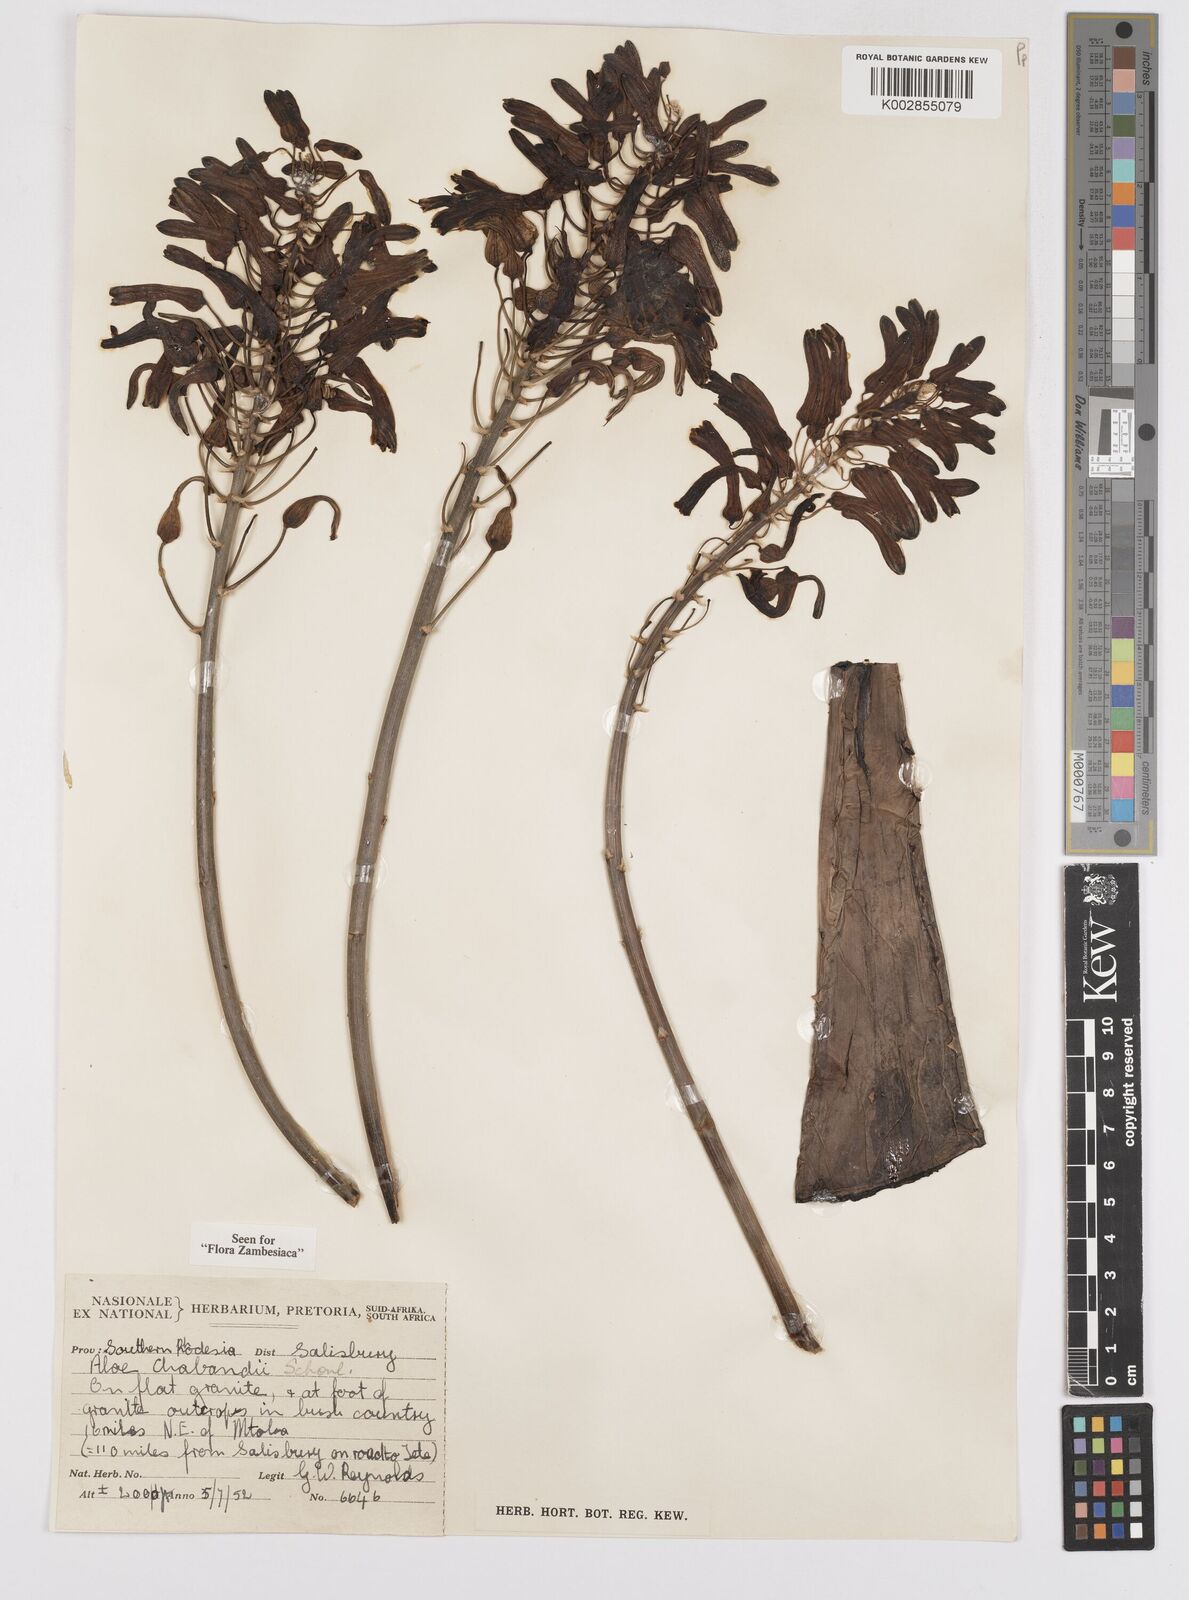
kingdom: Plantae
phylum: Tracheophyta
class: Liliopsida
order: Asparagales
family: Asphodelaceae
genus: Aloe
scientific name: Aloe chabaudii
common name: Chabaud's aloe
